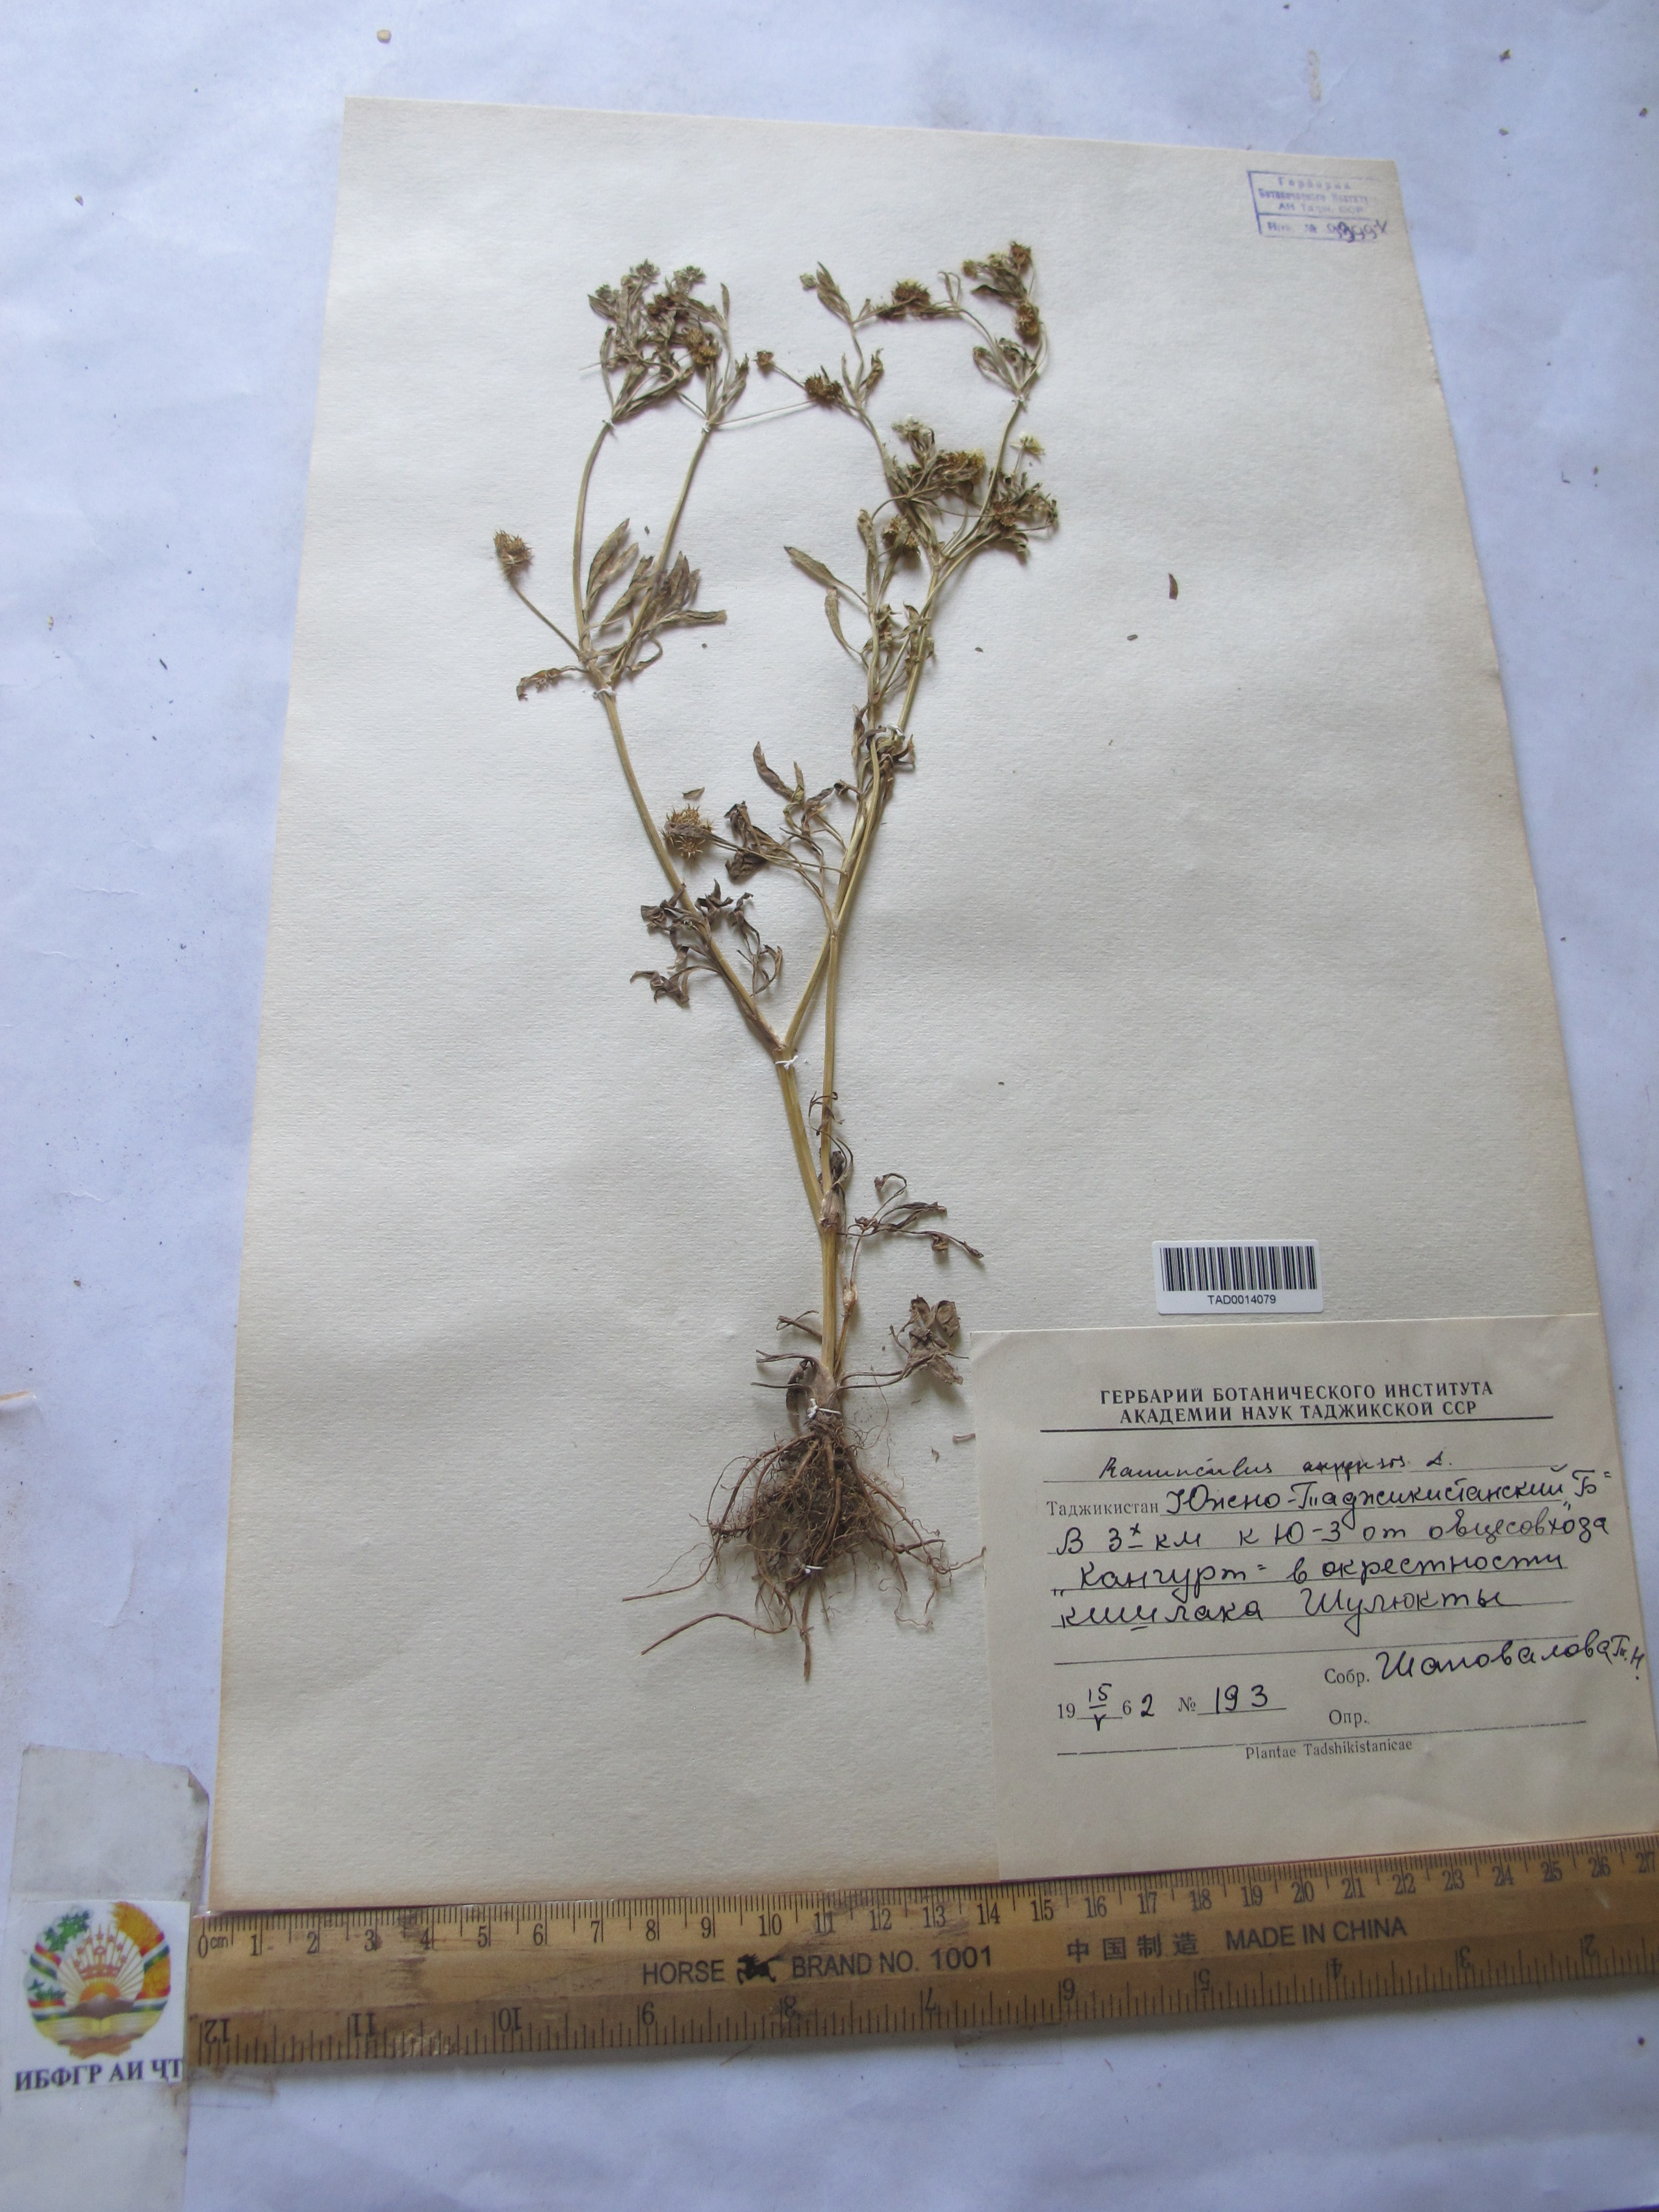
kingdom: Plantae
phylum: Tracheophyta
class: Magnoliopsida
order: Ranunculales
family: Ranunculaceae
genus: Ranunculus
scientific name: Ranunculus arvensis
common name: Corn buttercup
